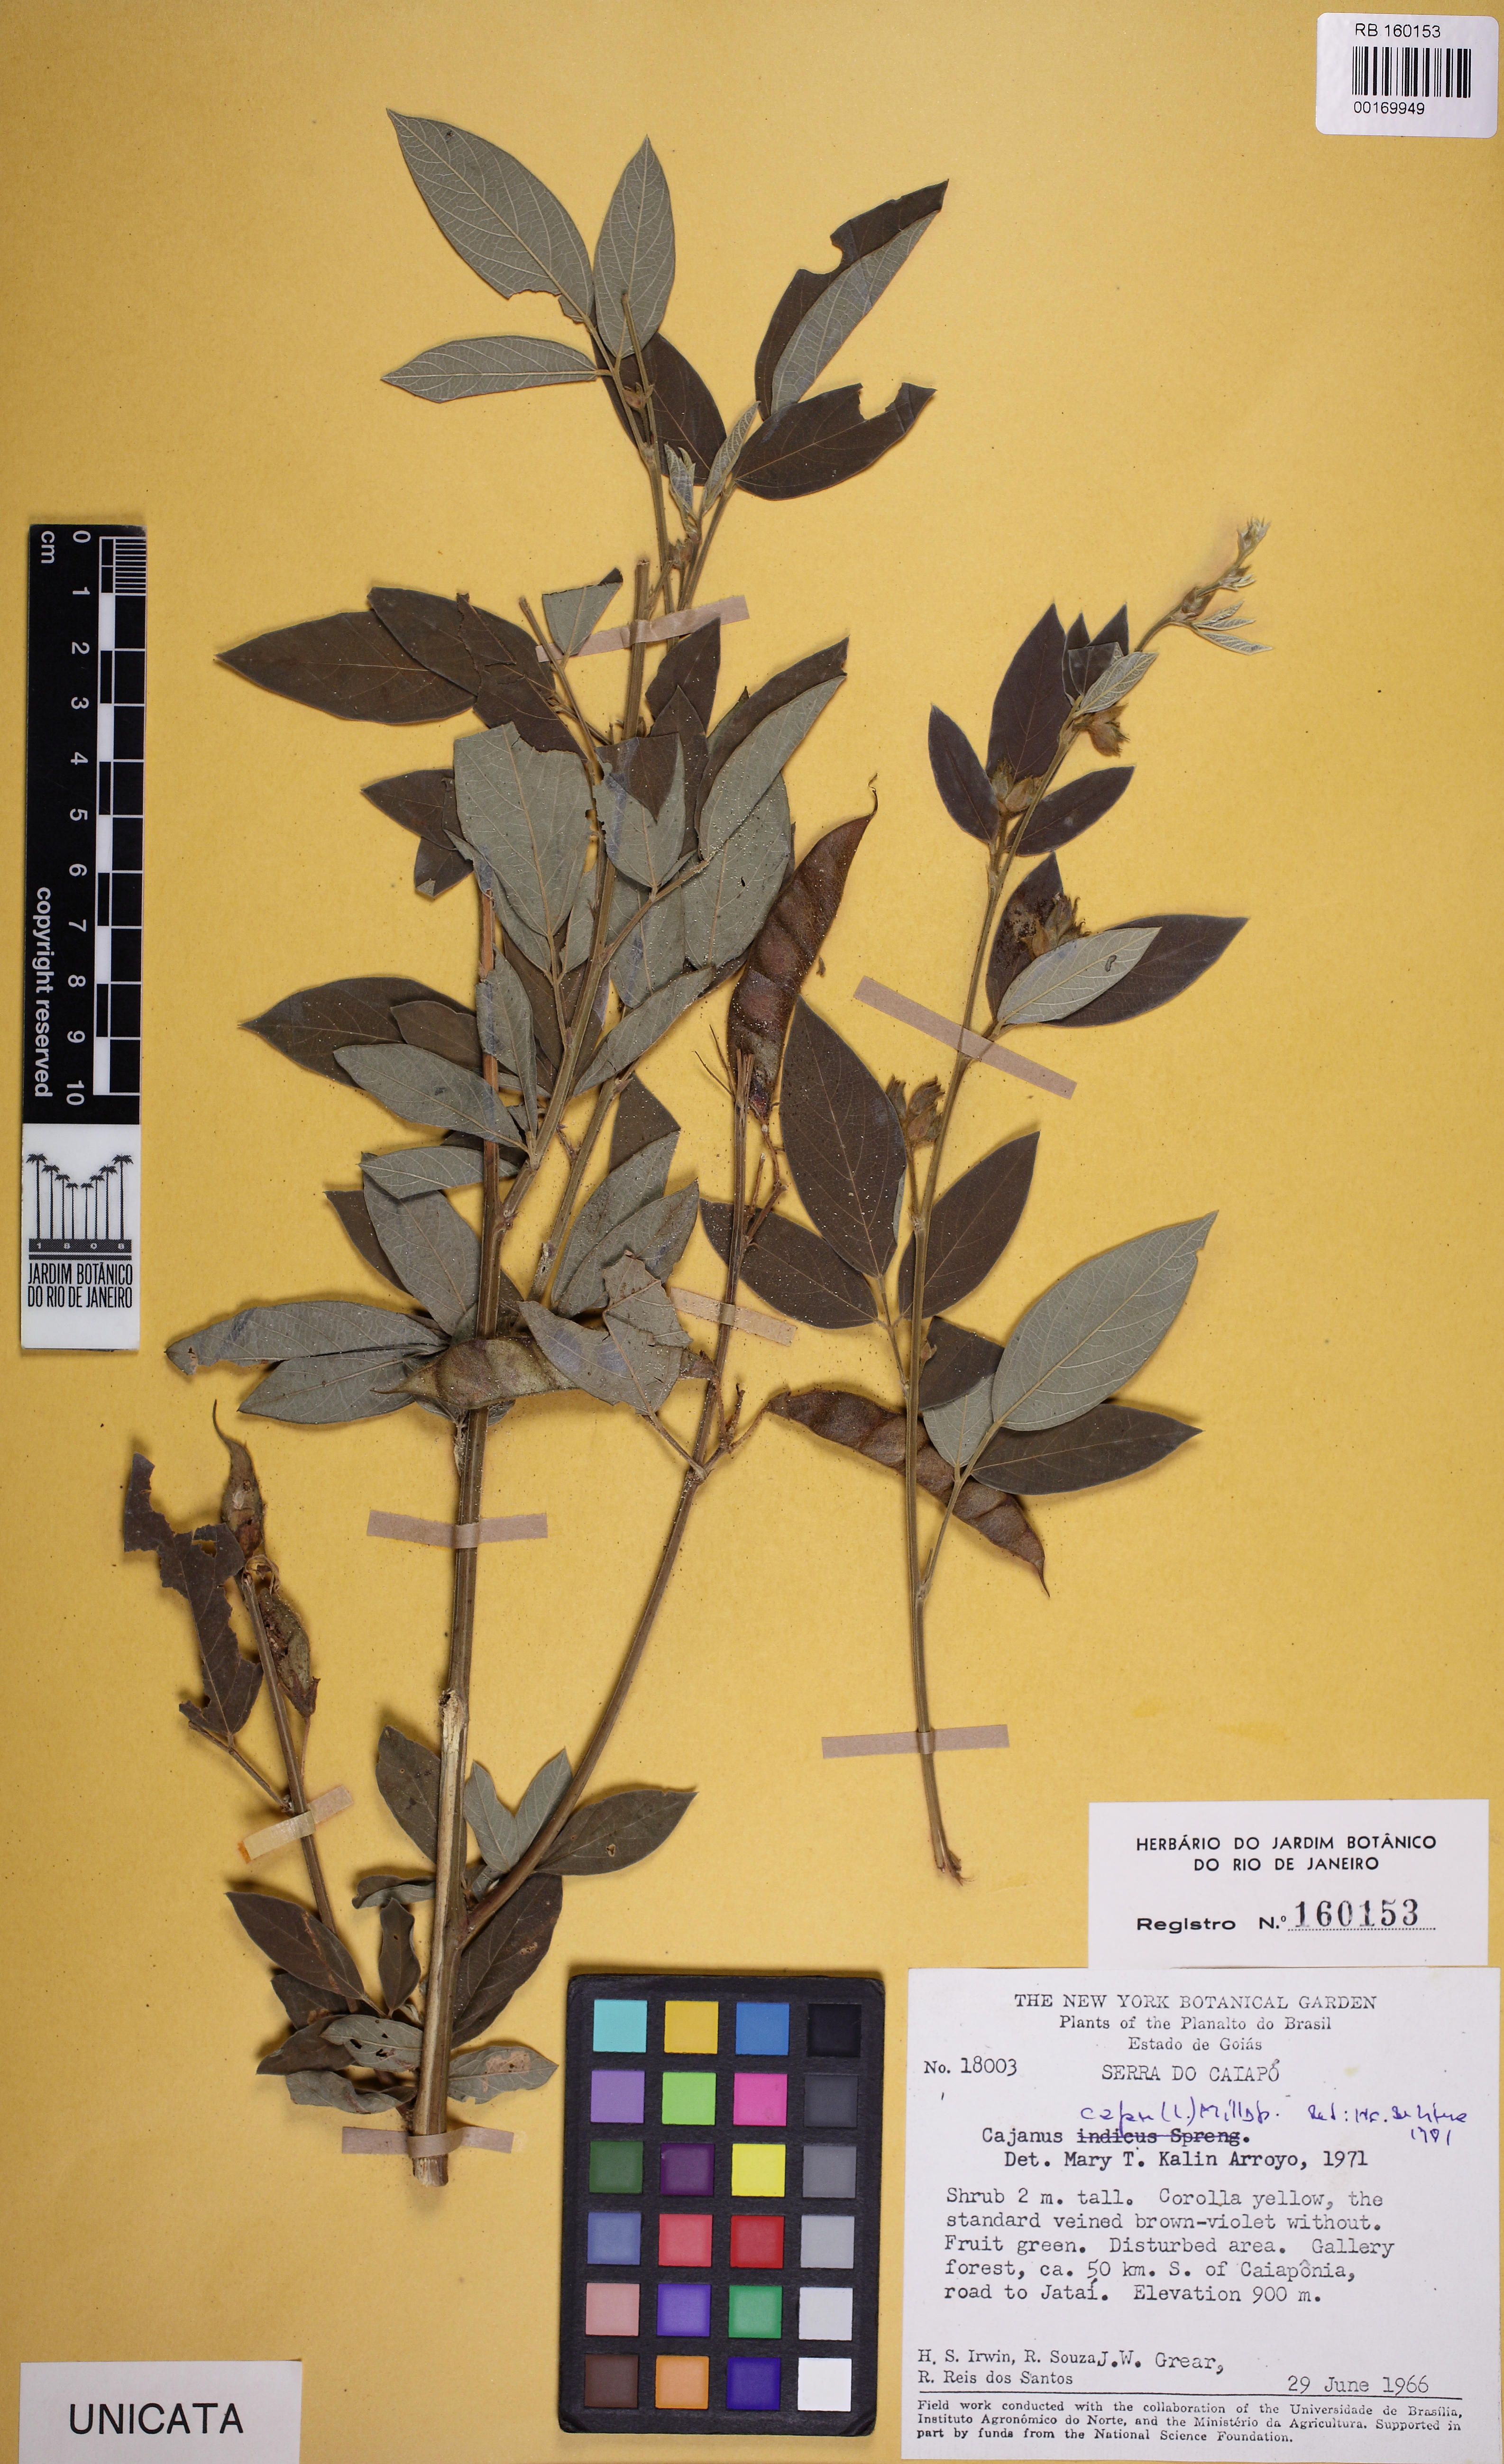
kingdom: Plantae
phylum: Tracheophyta
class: Magnoliopsida
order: Fabales
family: Fabaceae
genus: Cajanus
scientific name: Cajanus cajan
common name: Pigeonpea
